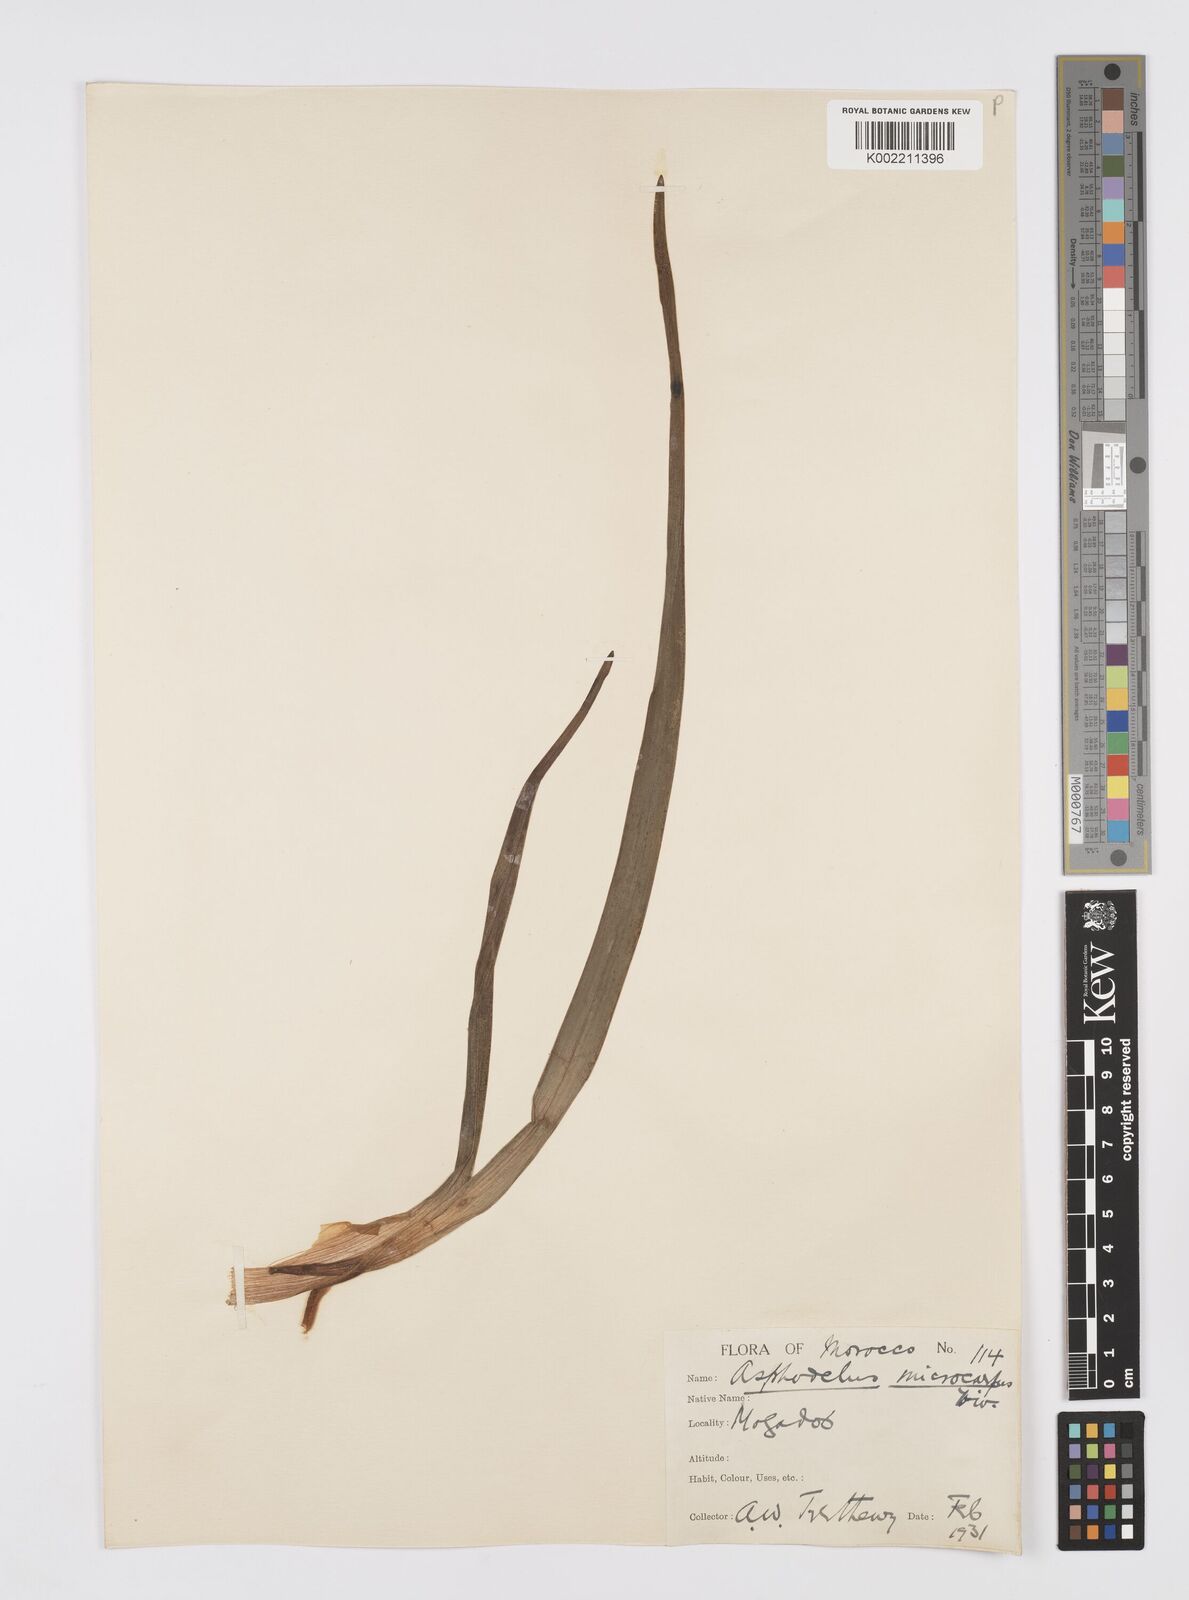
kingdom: Plantae
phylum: Tracheophyta
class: Liliopsida
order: Asparagales
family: Asphodelaceae
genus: Asphodelus
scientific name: Asphodelus ramosus
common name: Silverrod
